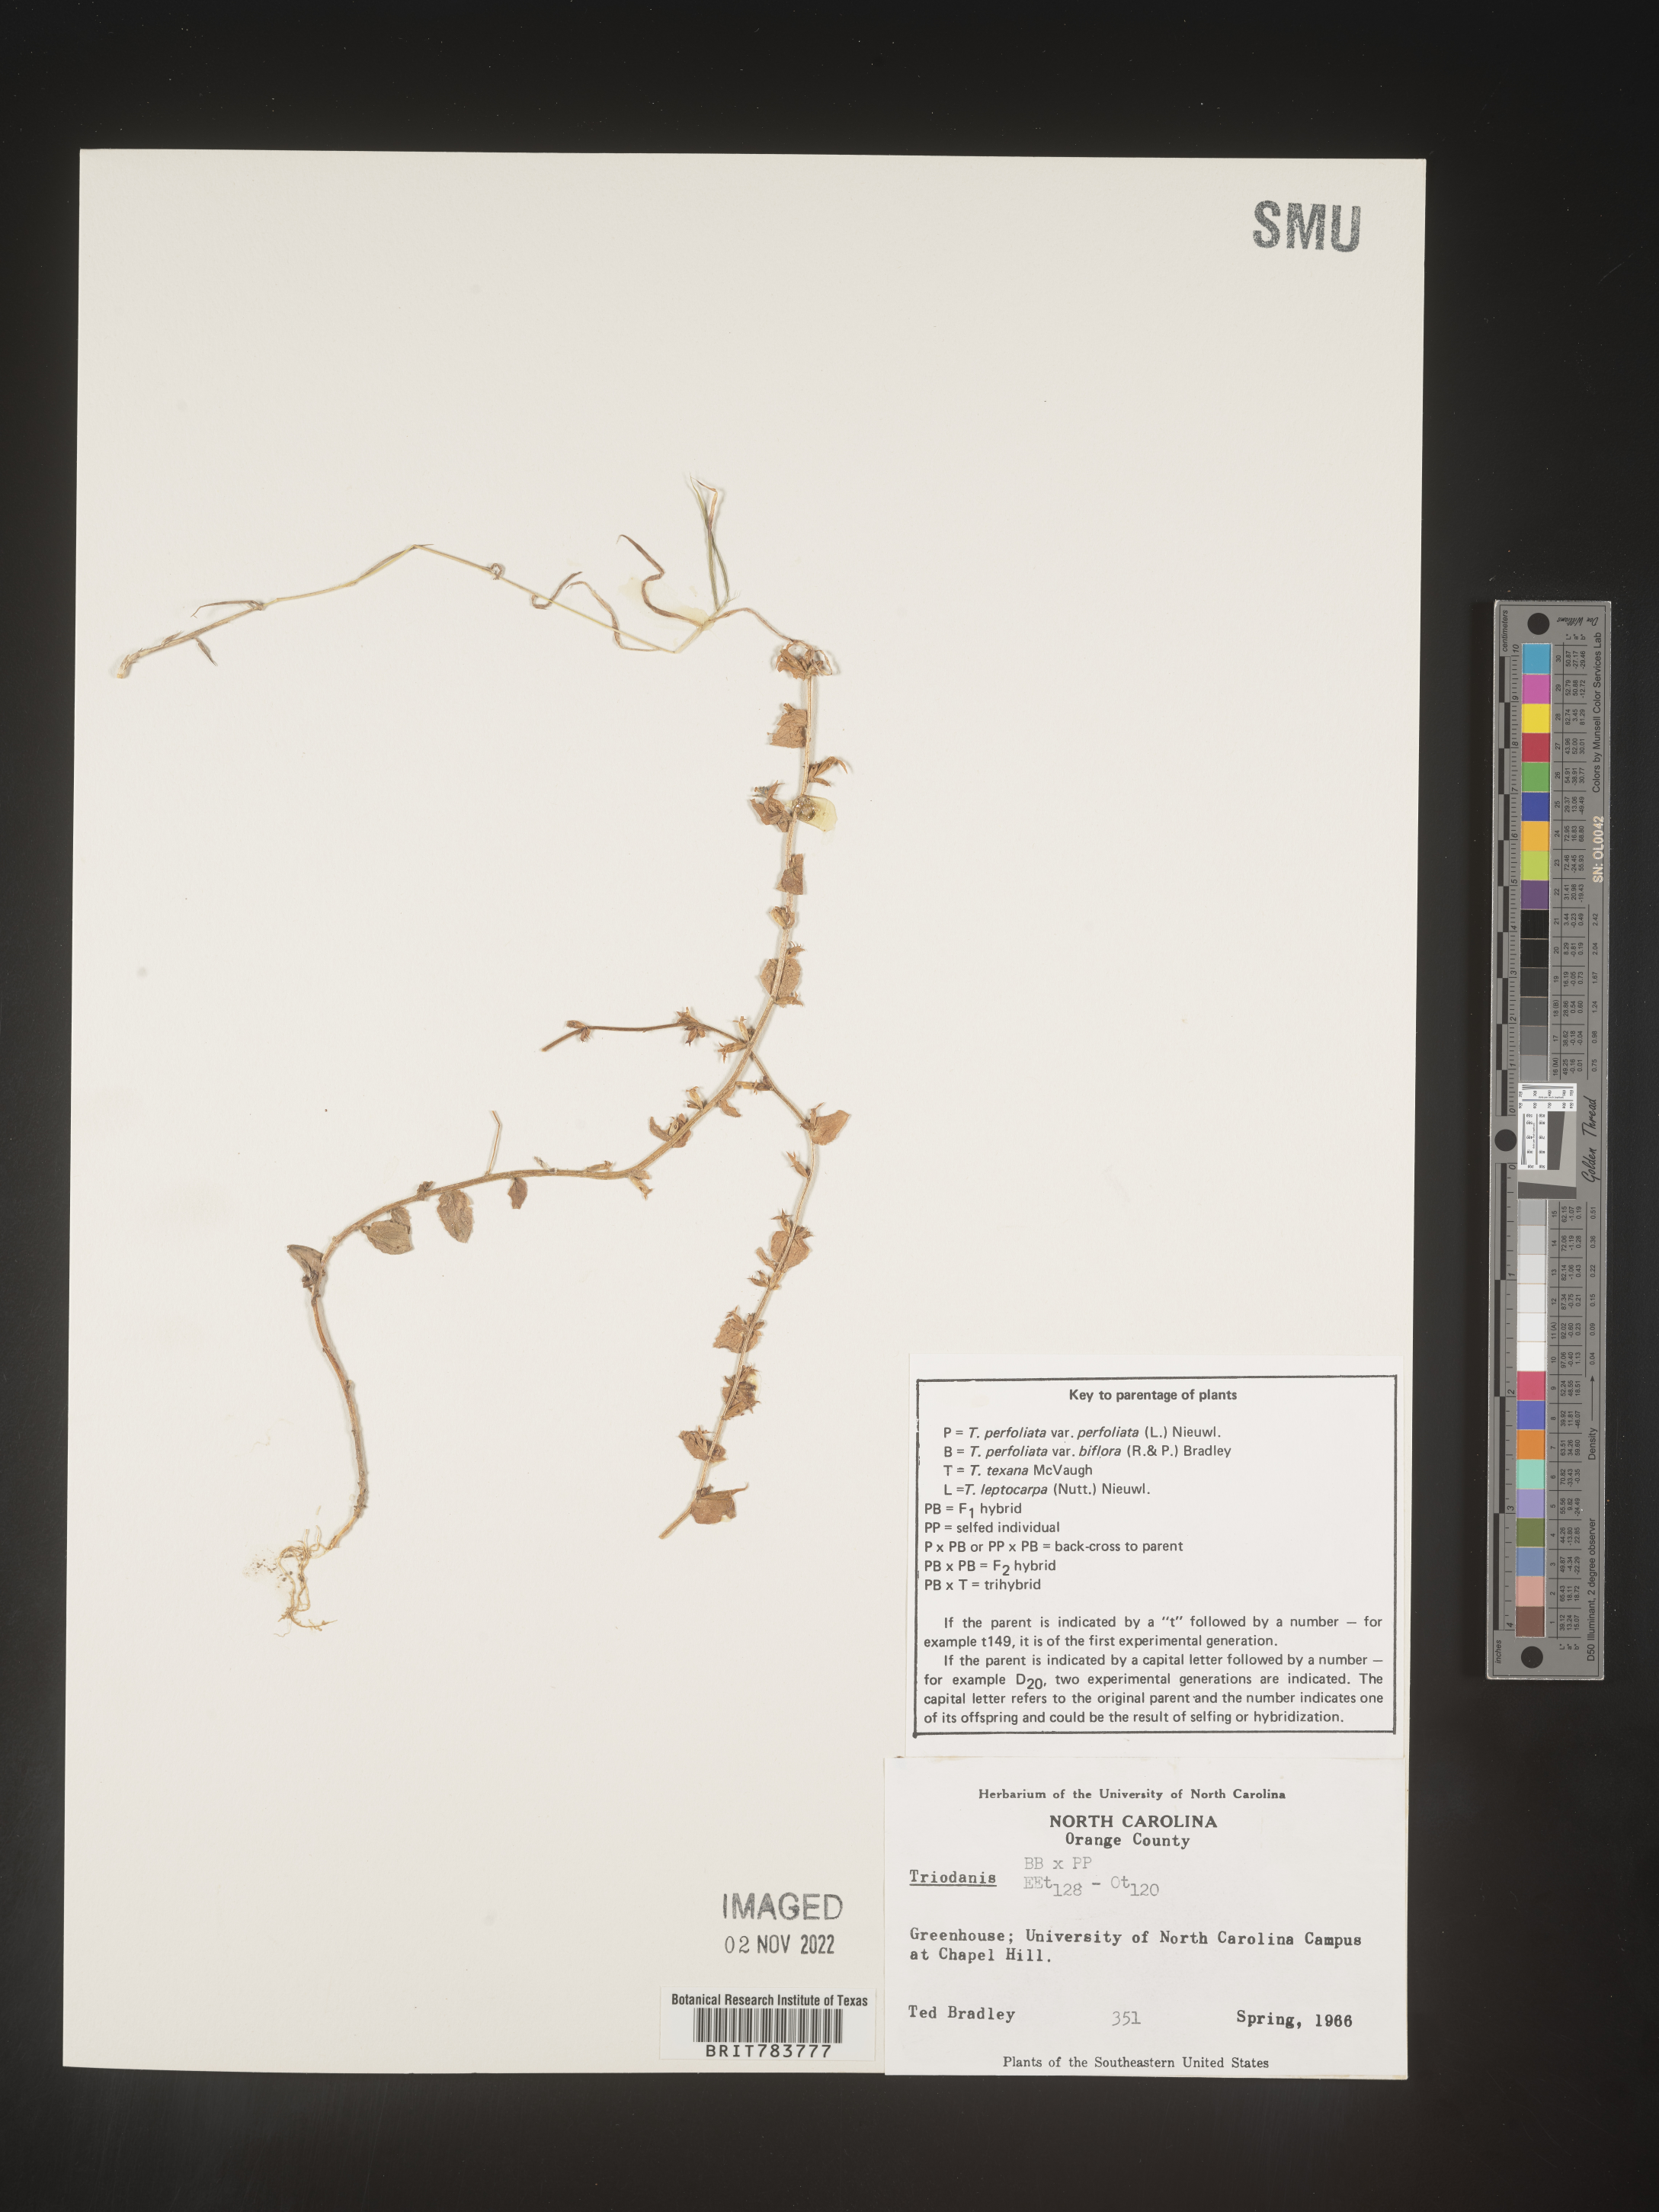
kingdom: Plantae
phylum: Tracheophyta
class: Magnoliopsida
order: Asterales
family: Campanulaceae
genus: Triodanis
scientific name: Triodanis
